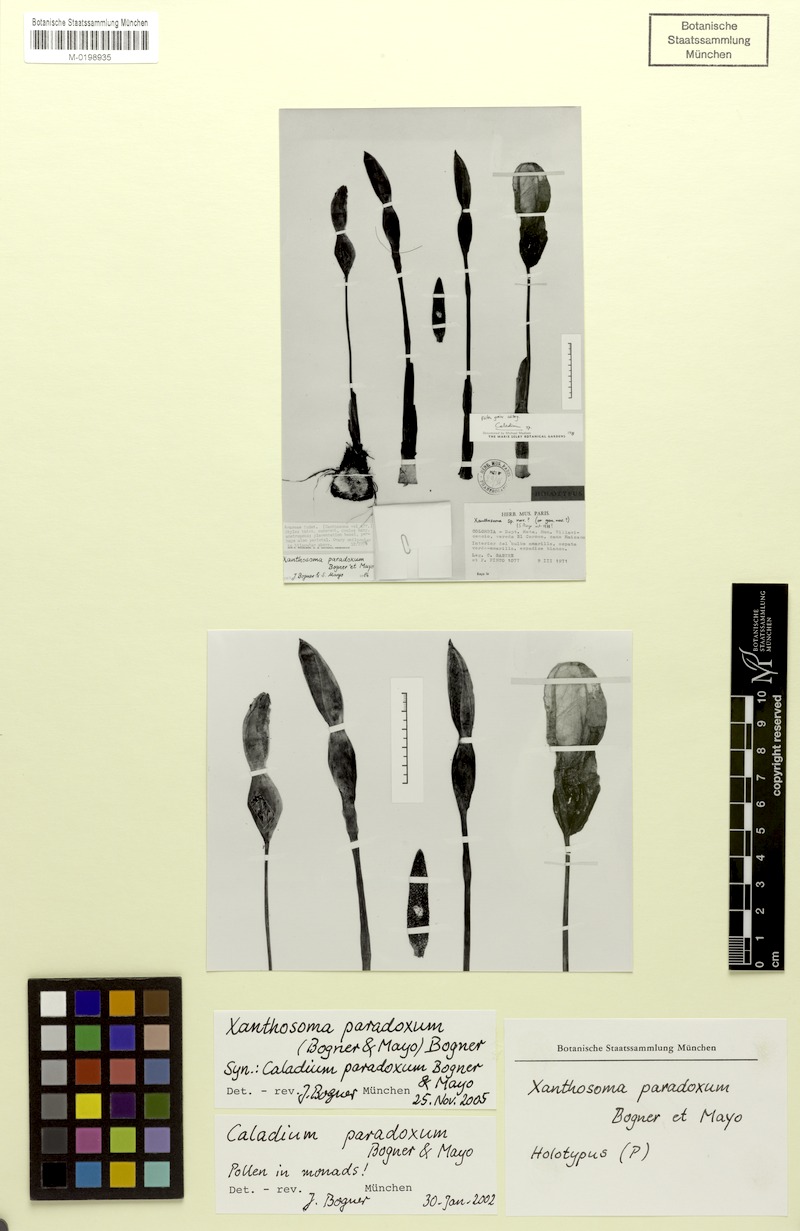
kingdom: Plantae
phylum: Tracheophyta
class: Liliopsida
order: Alismatales
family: Araceae
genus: Xanthosoma
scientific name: Xanthosoma paradoxum
